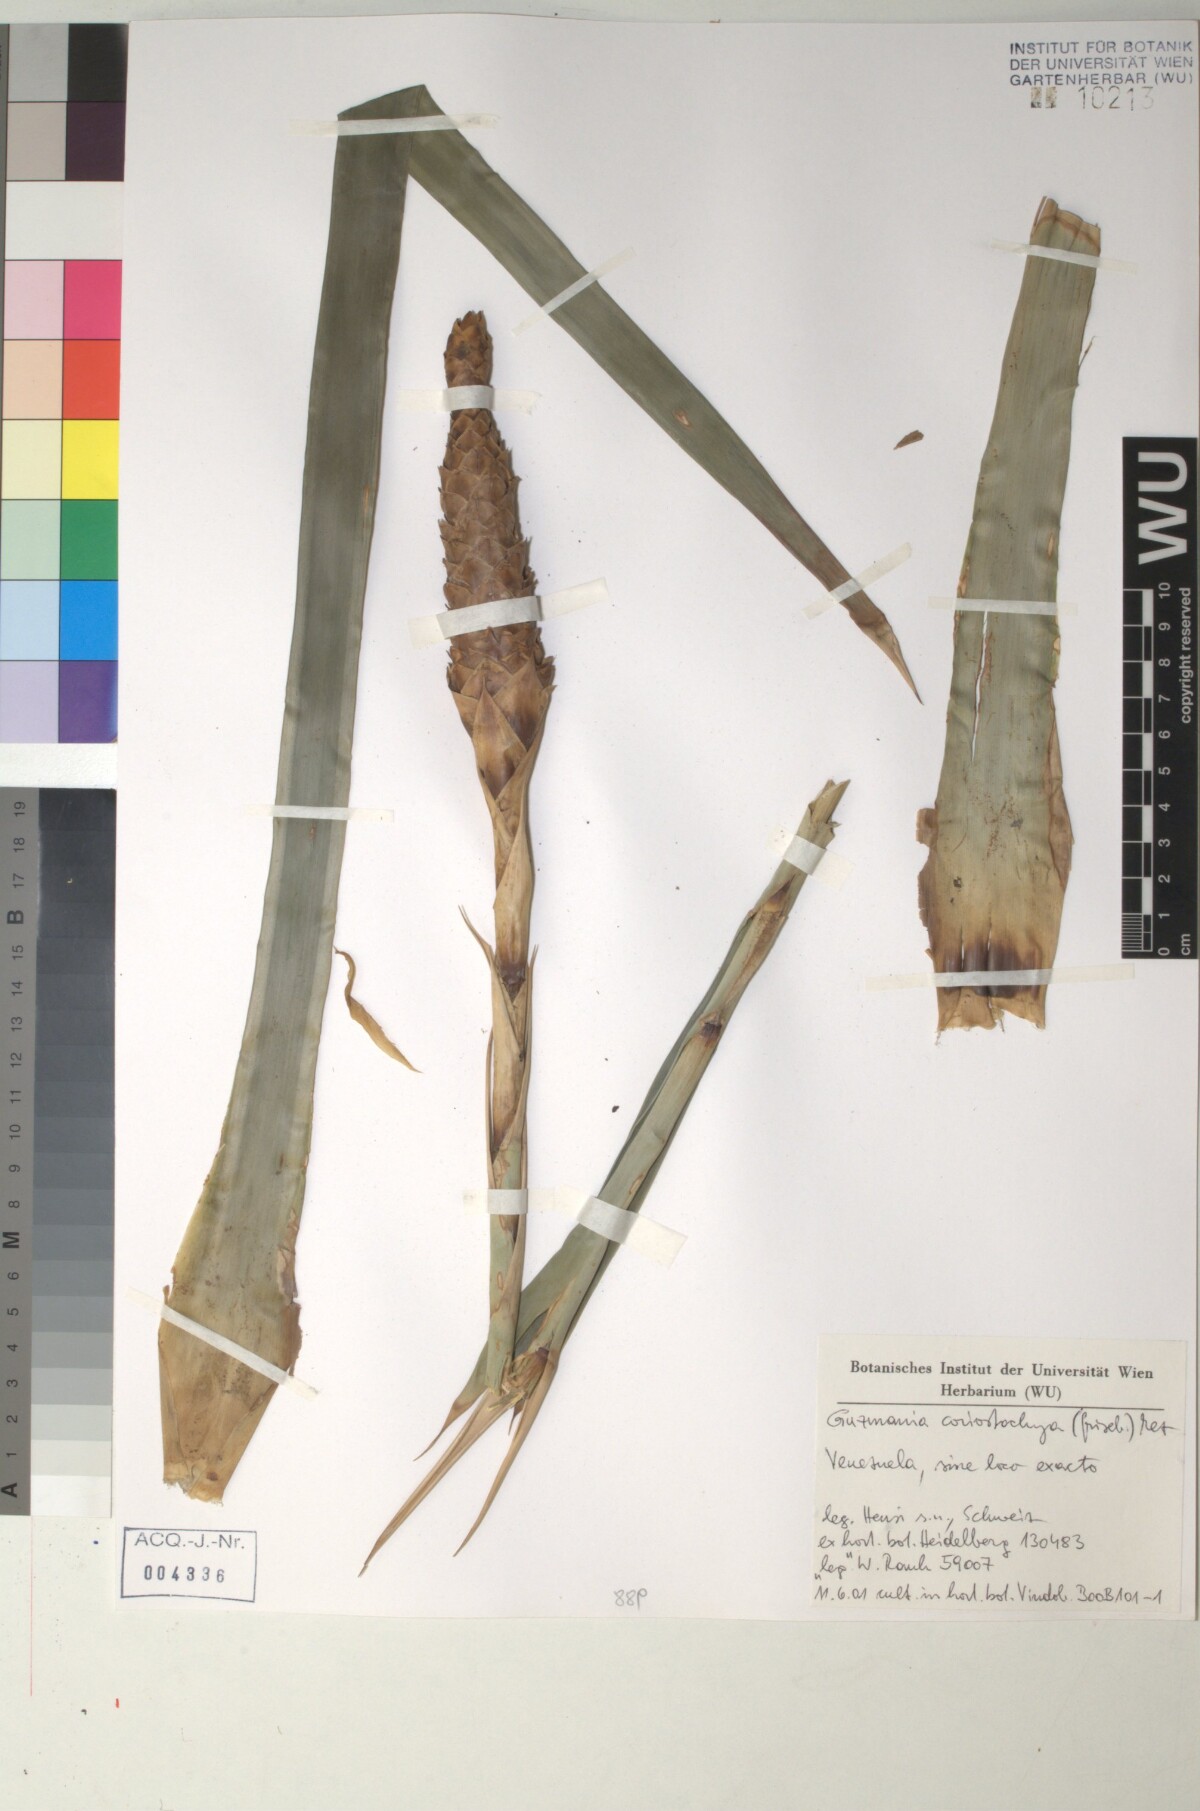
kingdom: Plantae
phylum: Tracheophyta
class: Liliopsida
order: Poales
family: Bromeliaceae
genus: Guzmania
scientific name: Guzmania coriostachya
